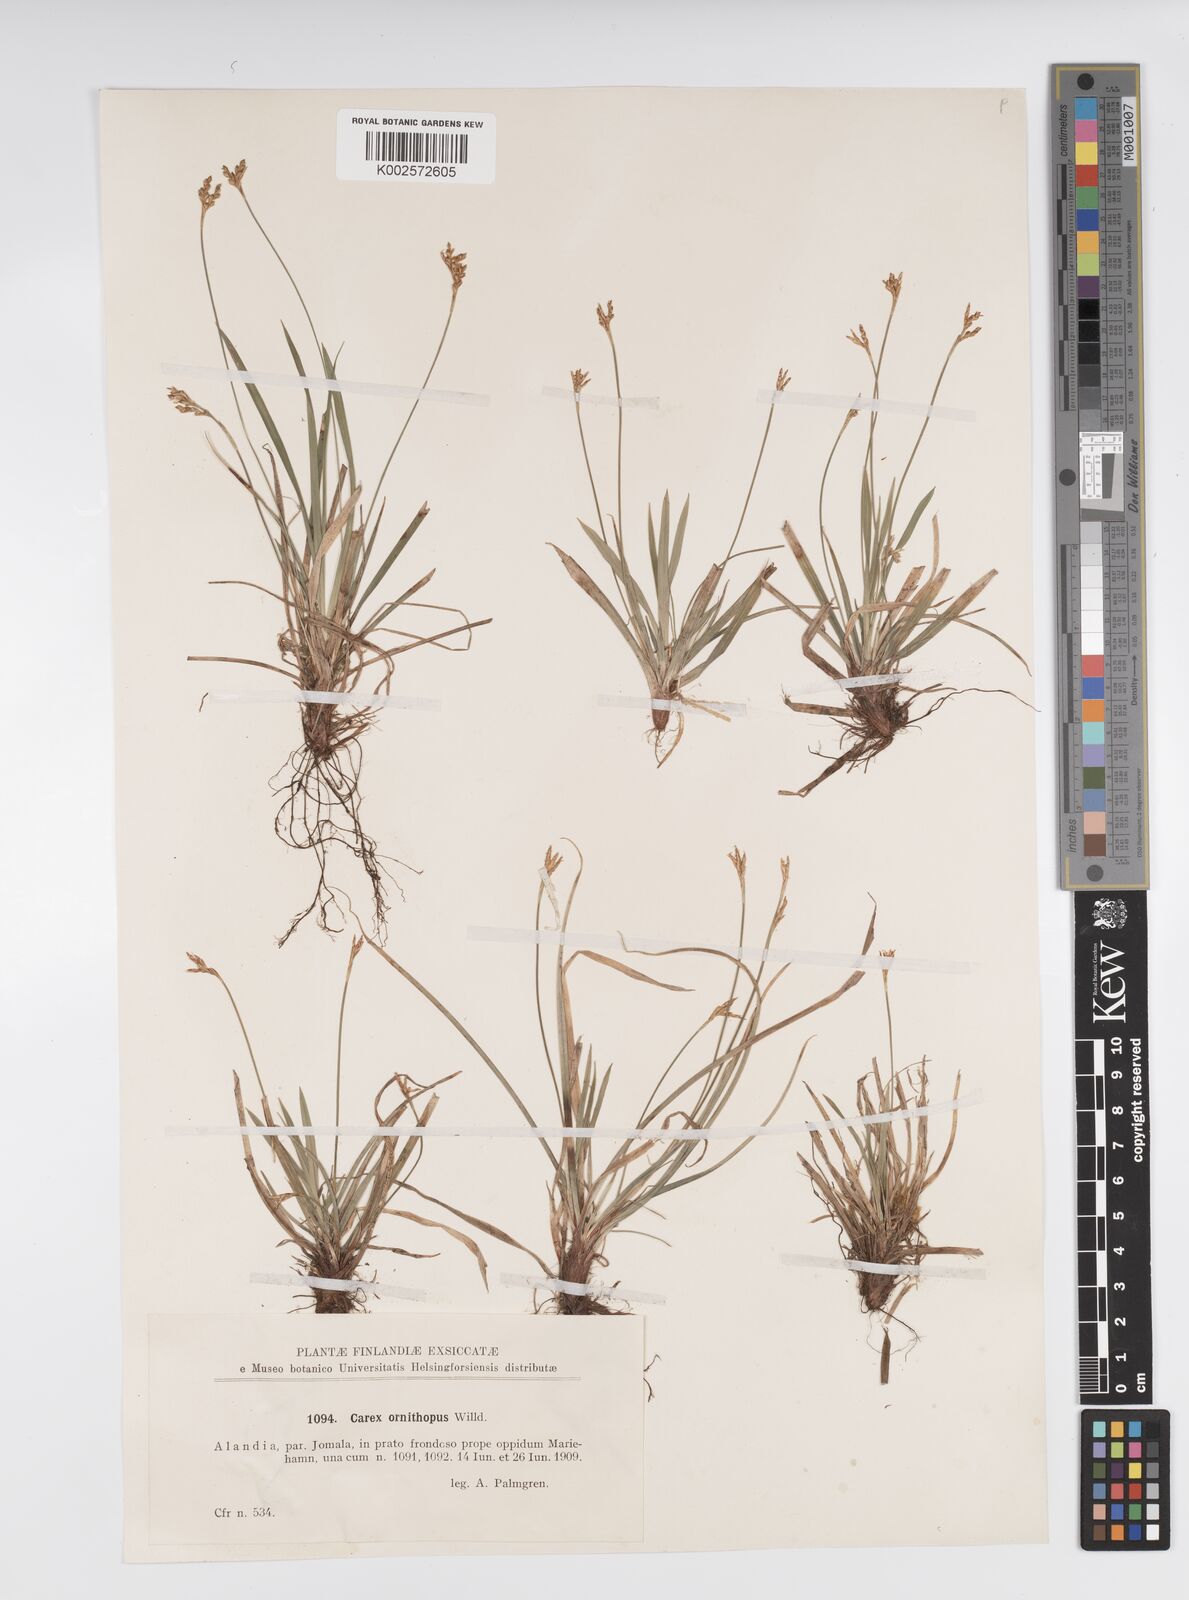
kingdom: Plantae
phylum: Tracheophyta
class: Liliopsida
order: Poales
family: Cyperaceae
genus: Carex
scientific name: Carex ornithopoda
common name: Bird's-foot sedge
